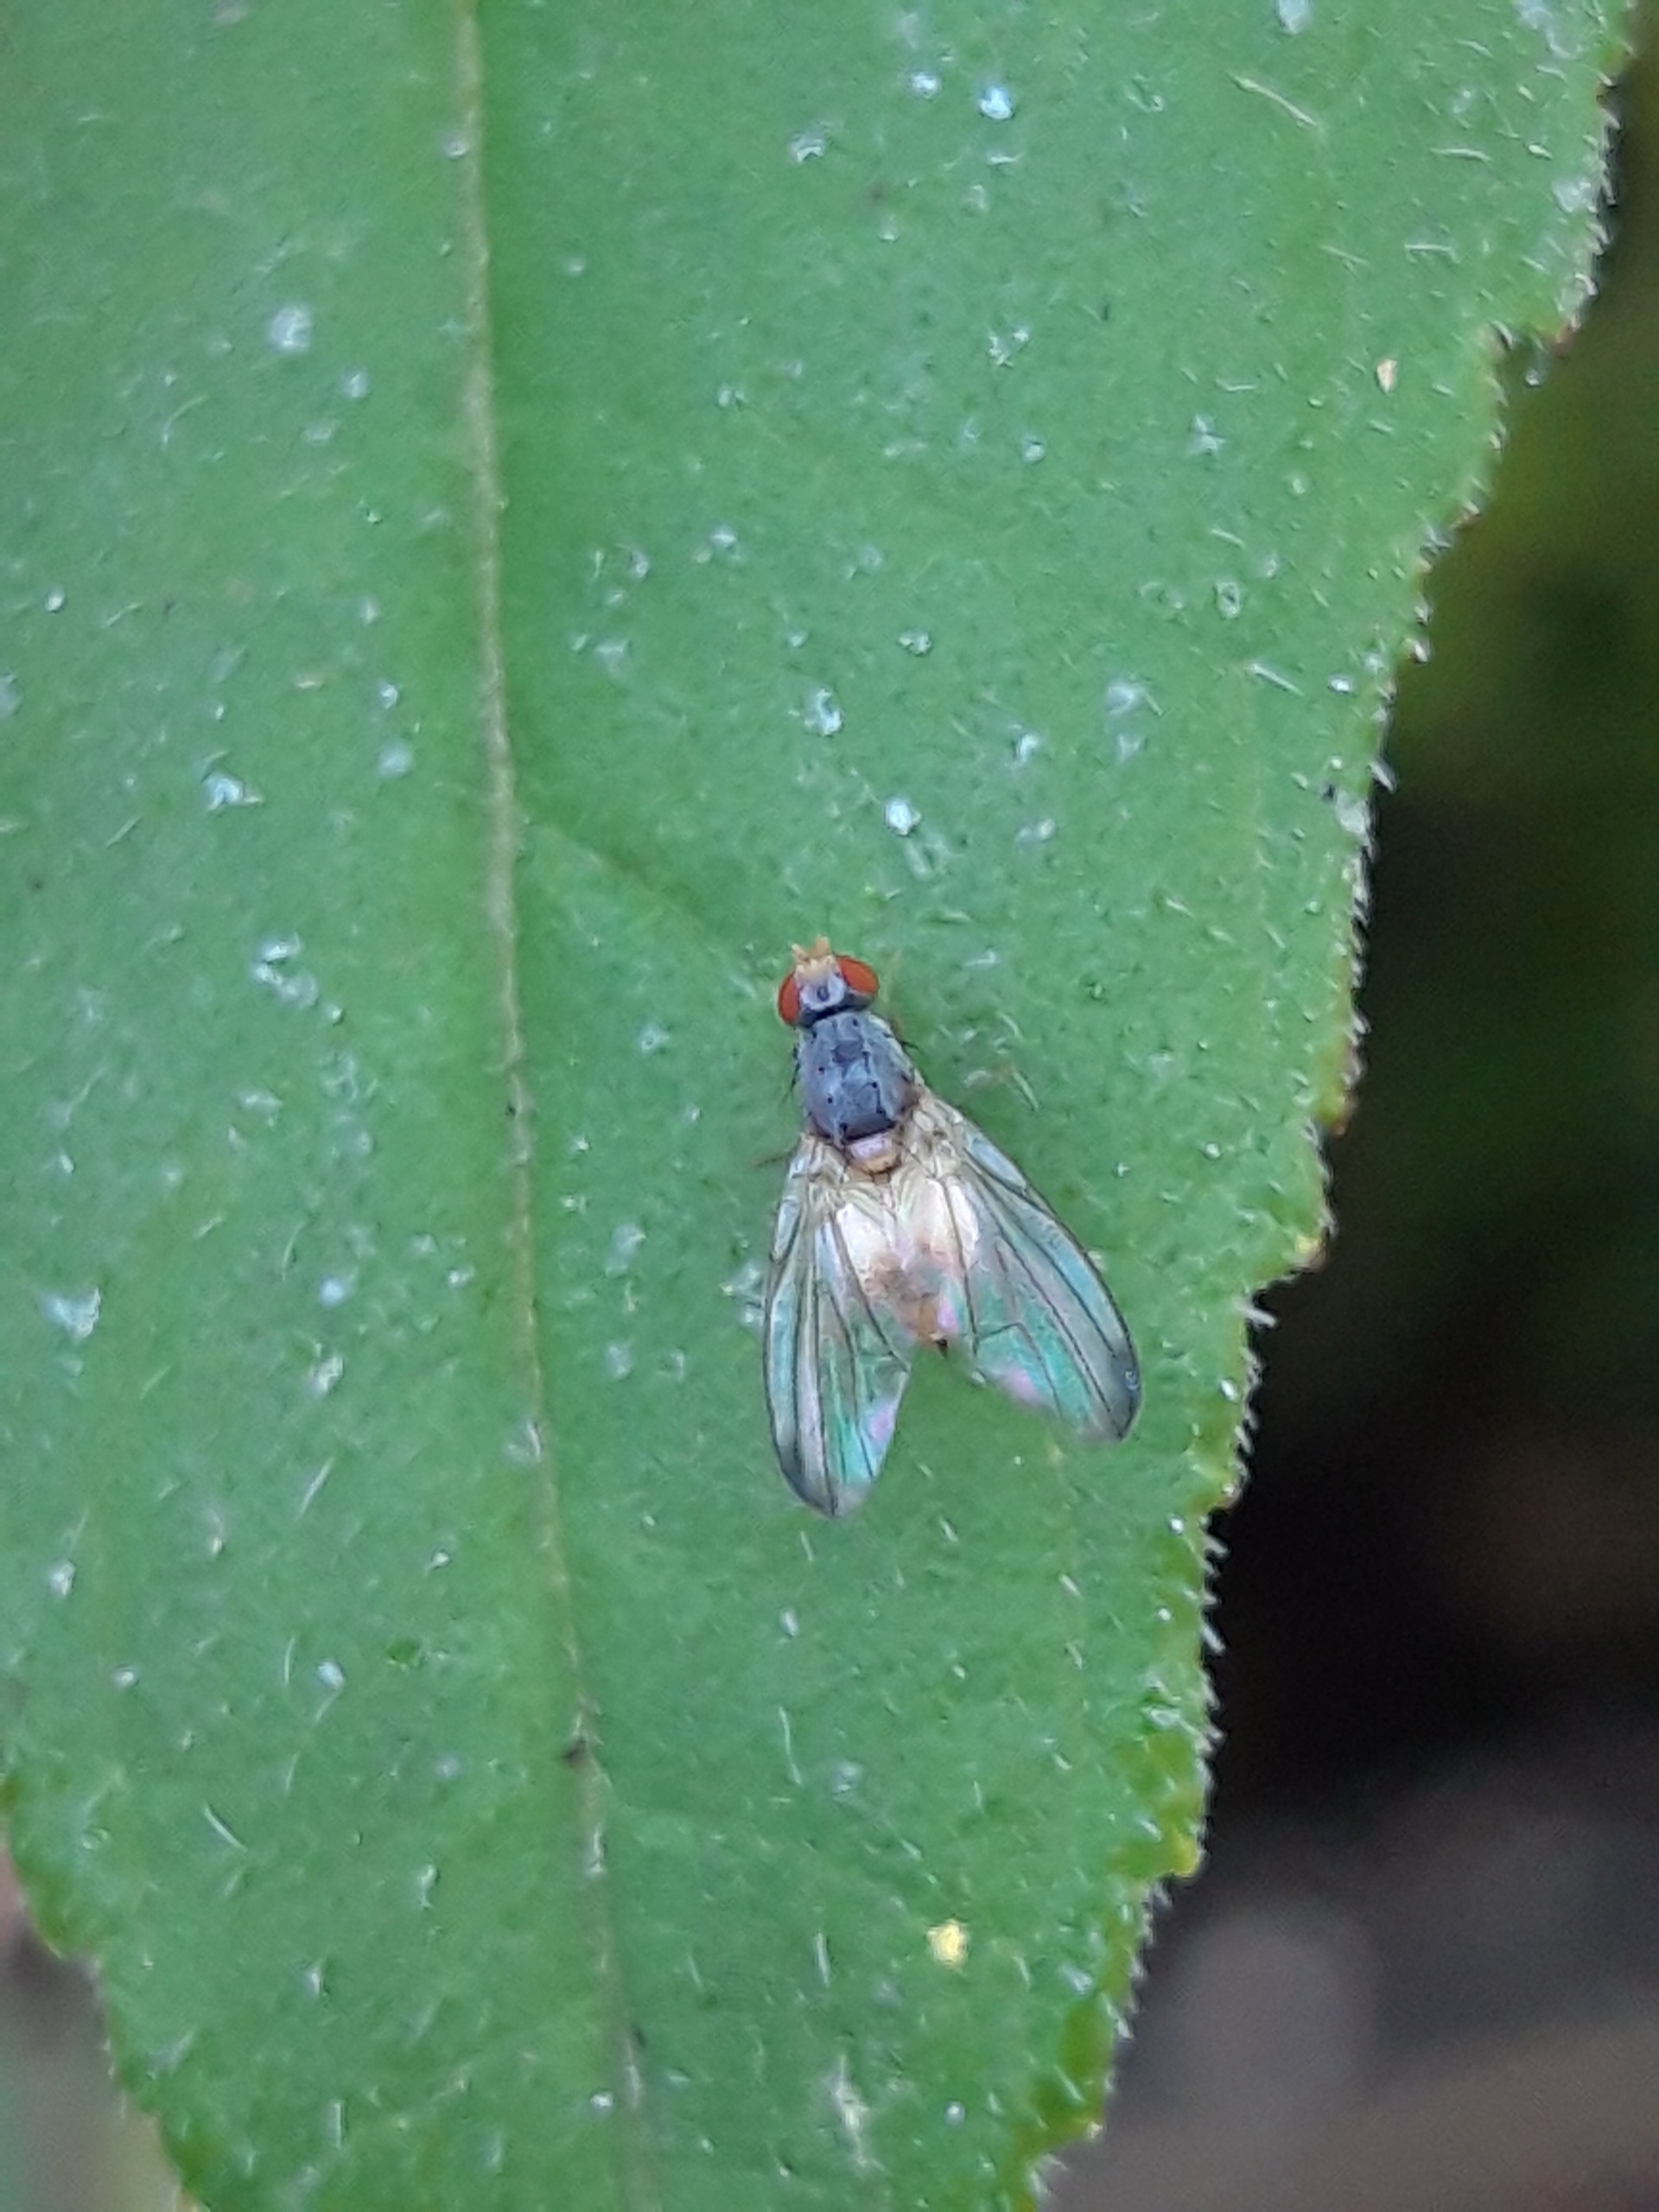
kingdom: Animalia
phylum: Arthropoda
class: Insecta
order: Diptera
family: Pallopteridae
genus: Palloptera
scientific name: Palloptera
